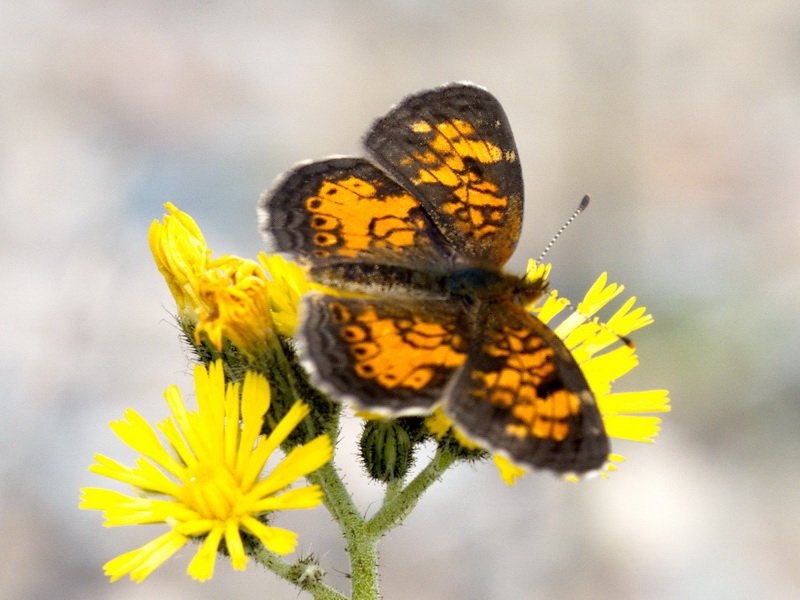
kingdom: Animalia
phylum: Arthropoda
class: Insecta
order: Lepidoptera
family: Nymphalidae
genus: Phyciodes
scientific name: Phyciodes tharos
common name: Northern Crescent
